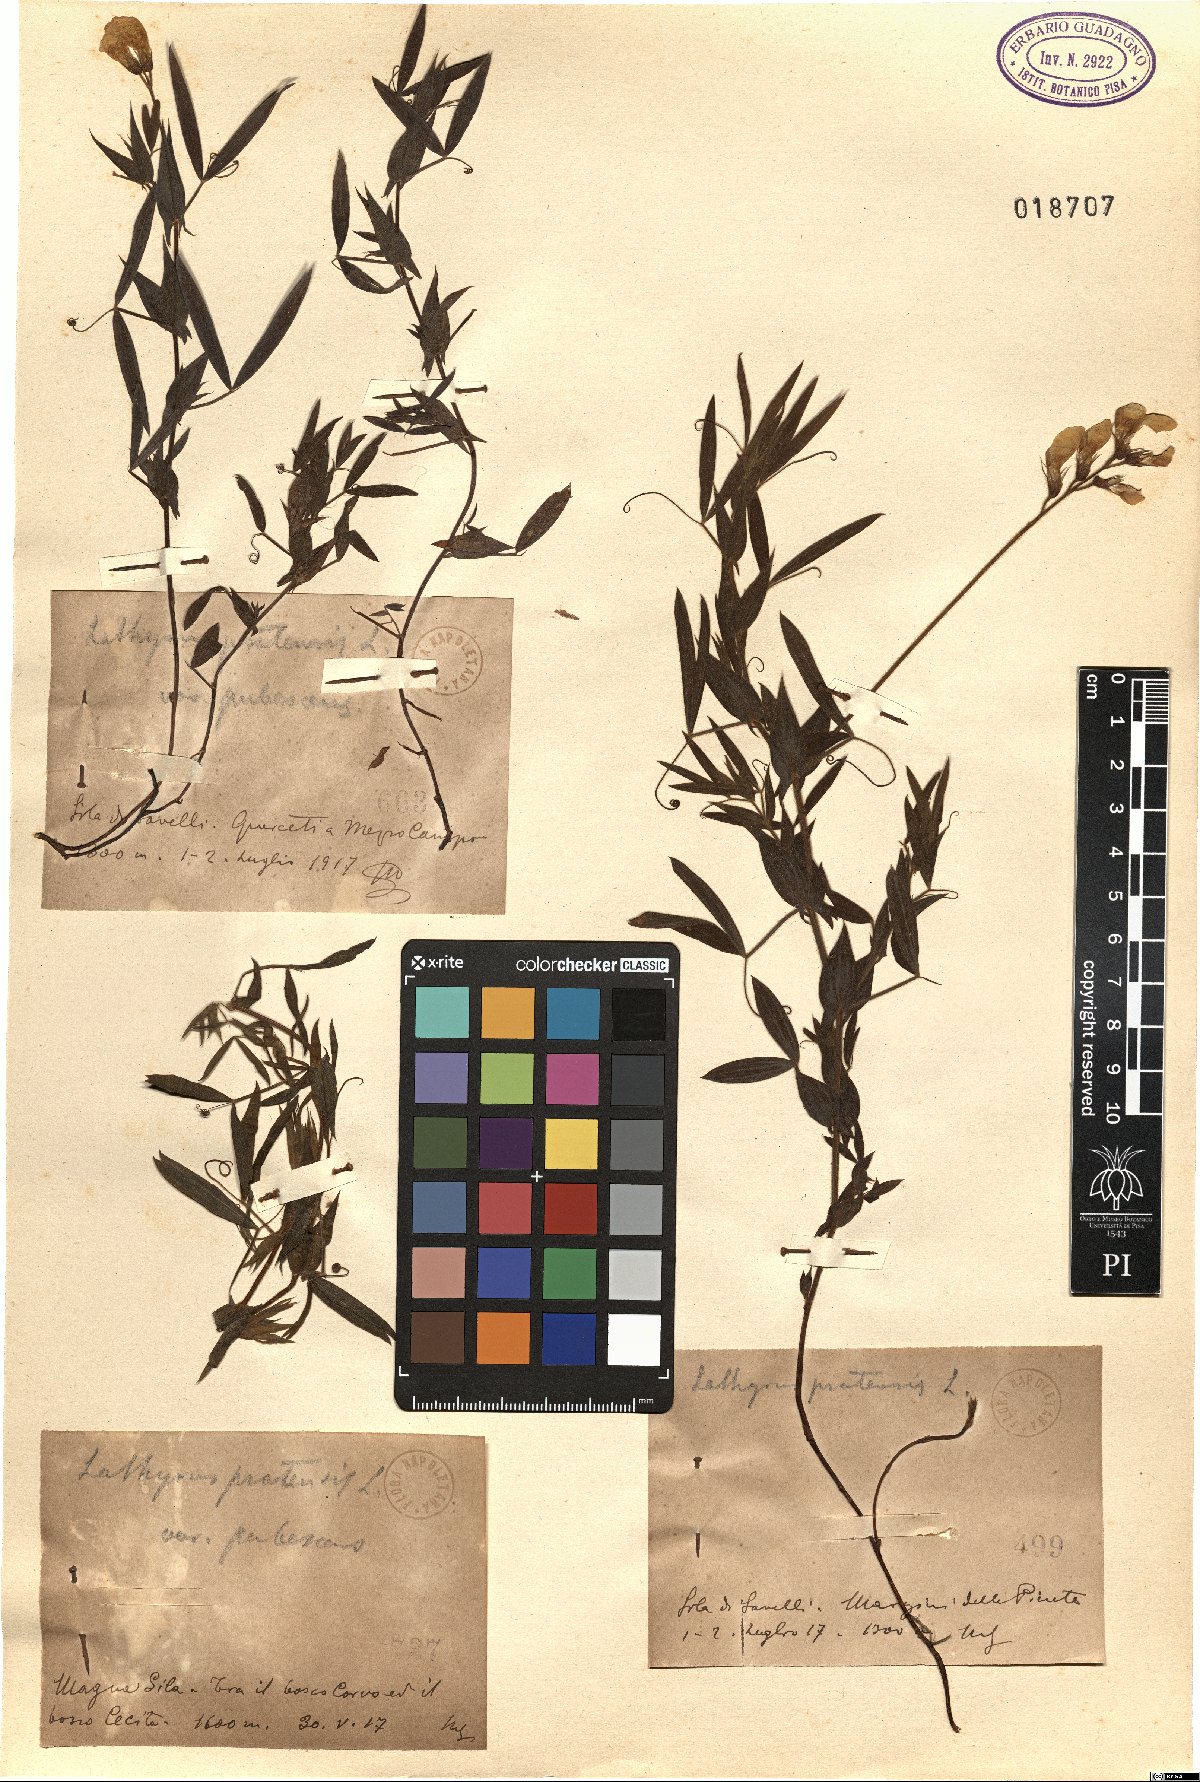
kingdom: Plantae
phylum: Tracheophyta
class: Magnoliopsida
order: Fabales
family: Fabaceae
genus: Lathyrus
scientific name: Lathyrus pratensis
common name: Meadow vetchling
